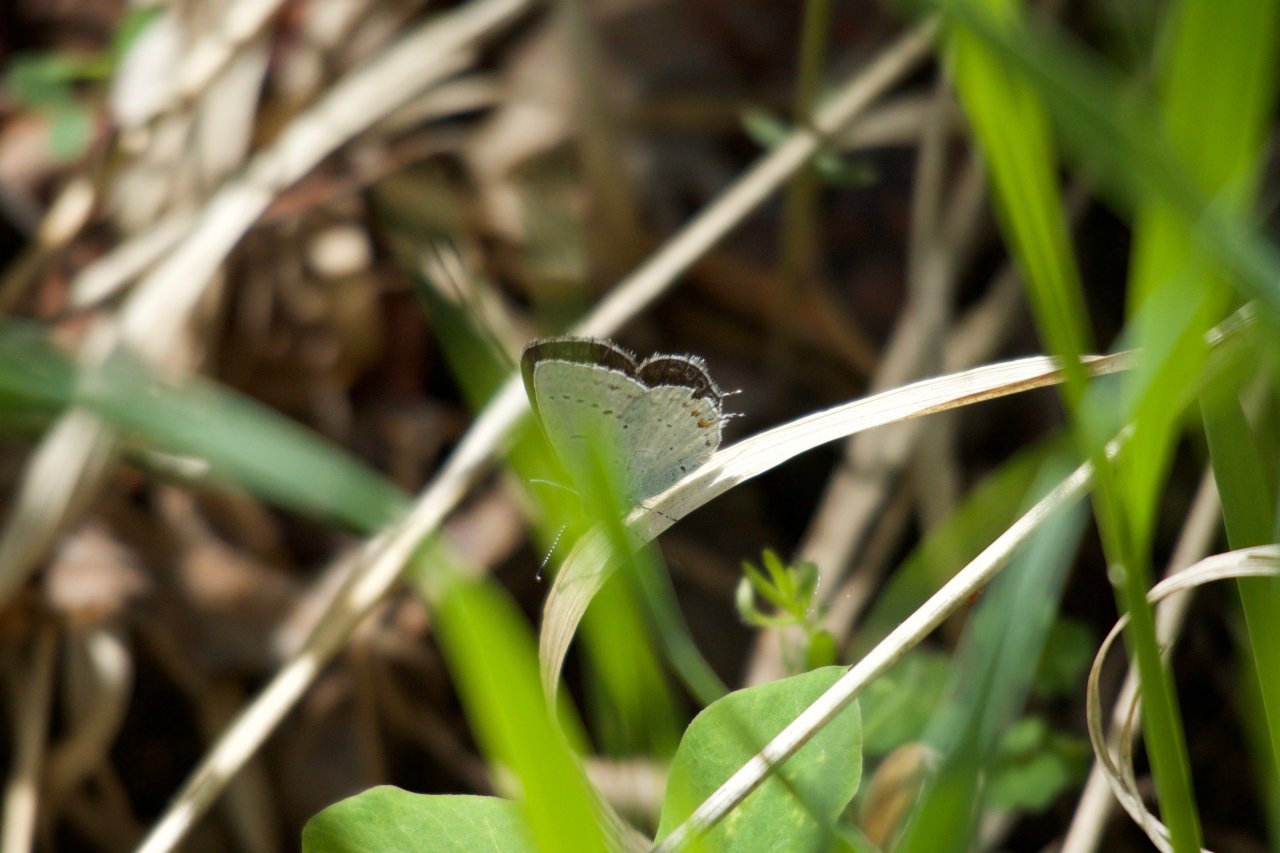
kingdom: Animalia
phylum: Arthropoda
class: Insecta
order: Lepidoptera
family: Lycaenidae
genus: Elkalyce
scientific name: Elkalyce amyntula
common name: Western Tailed-Blue
